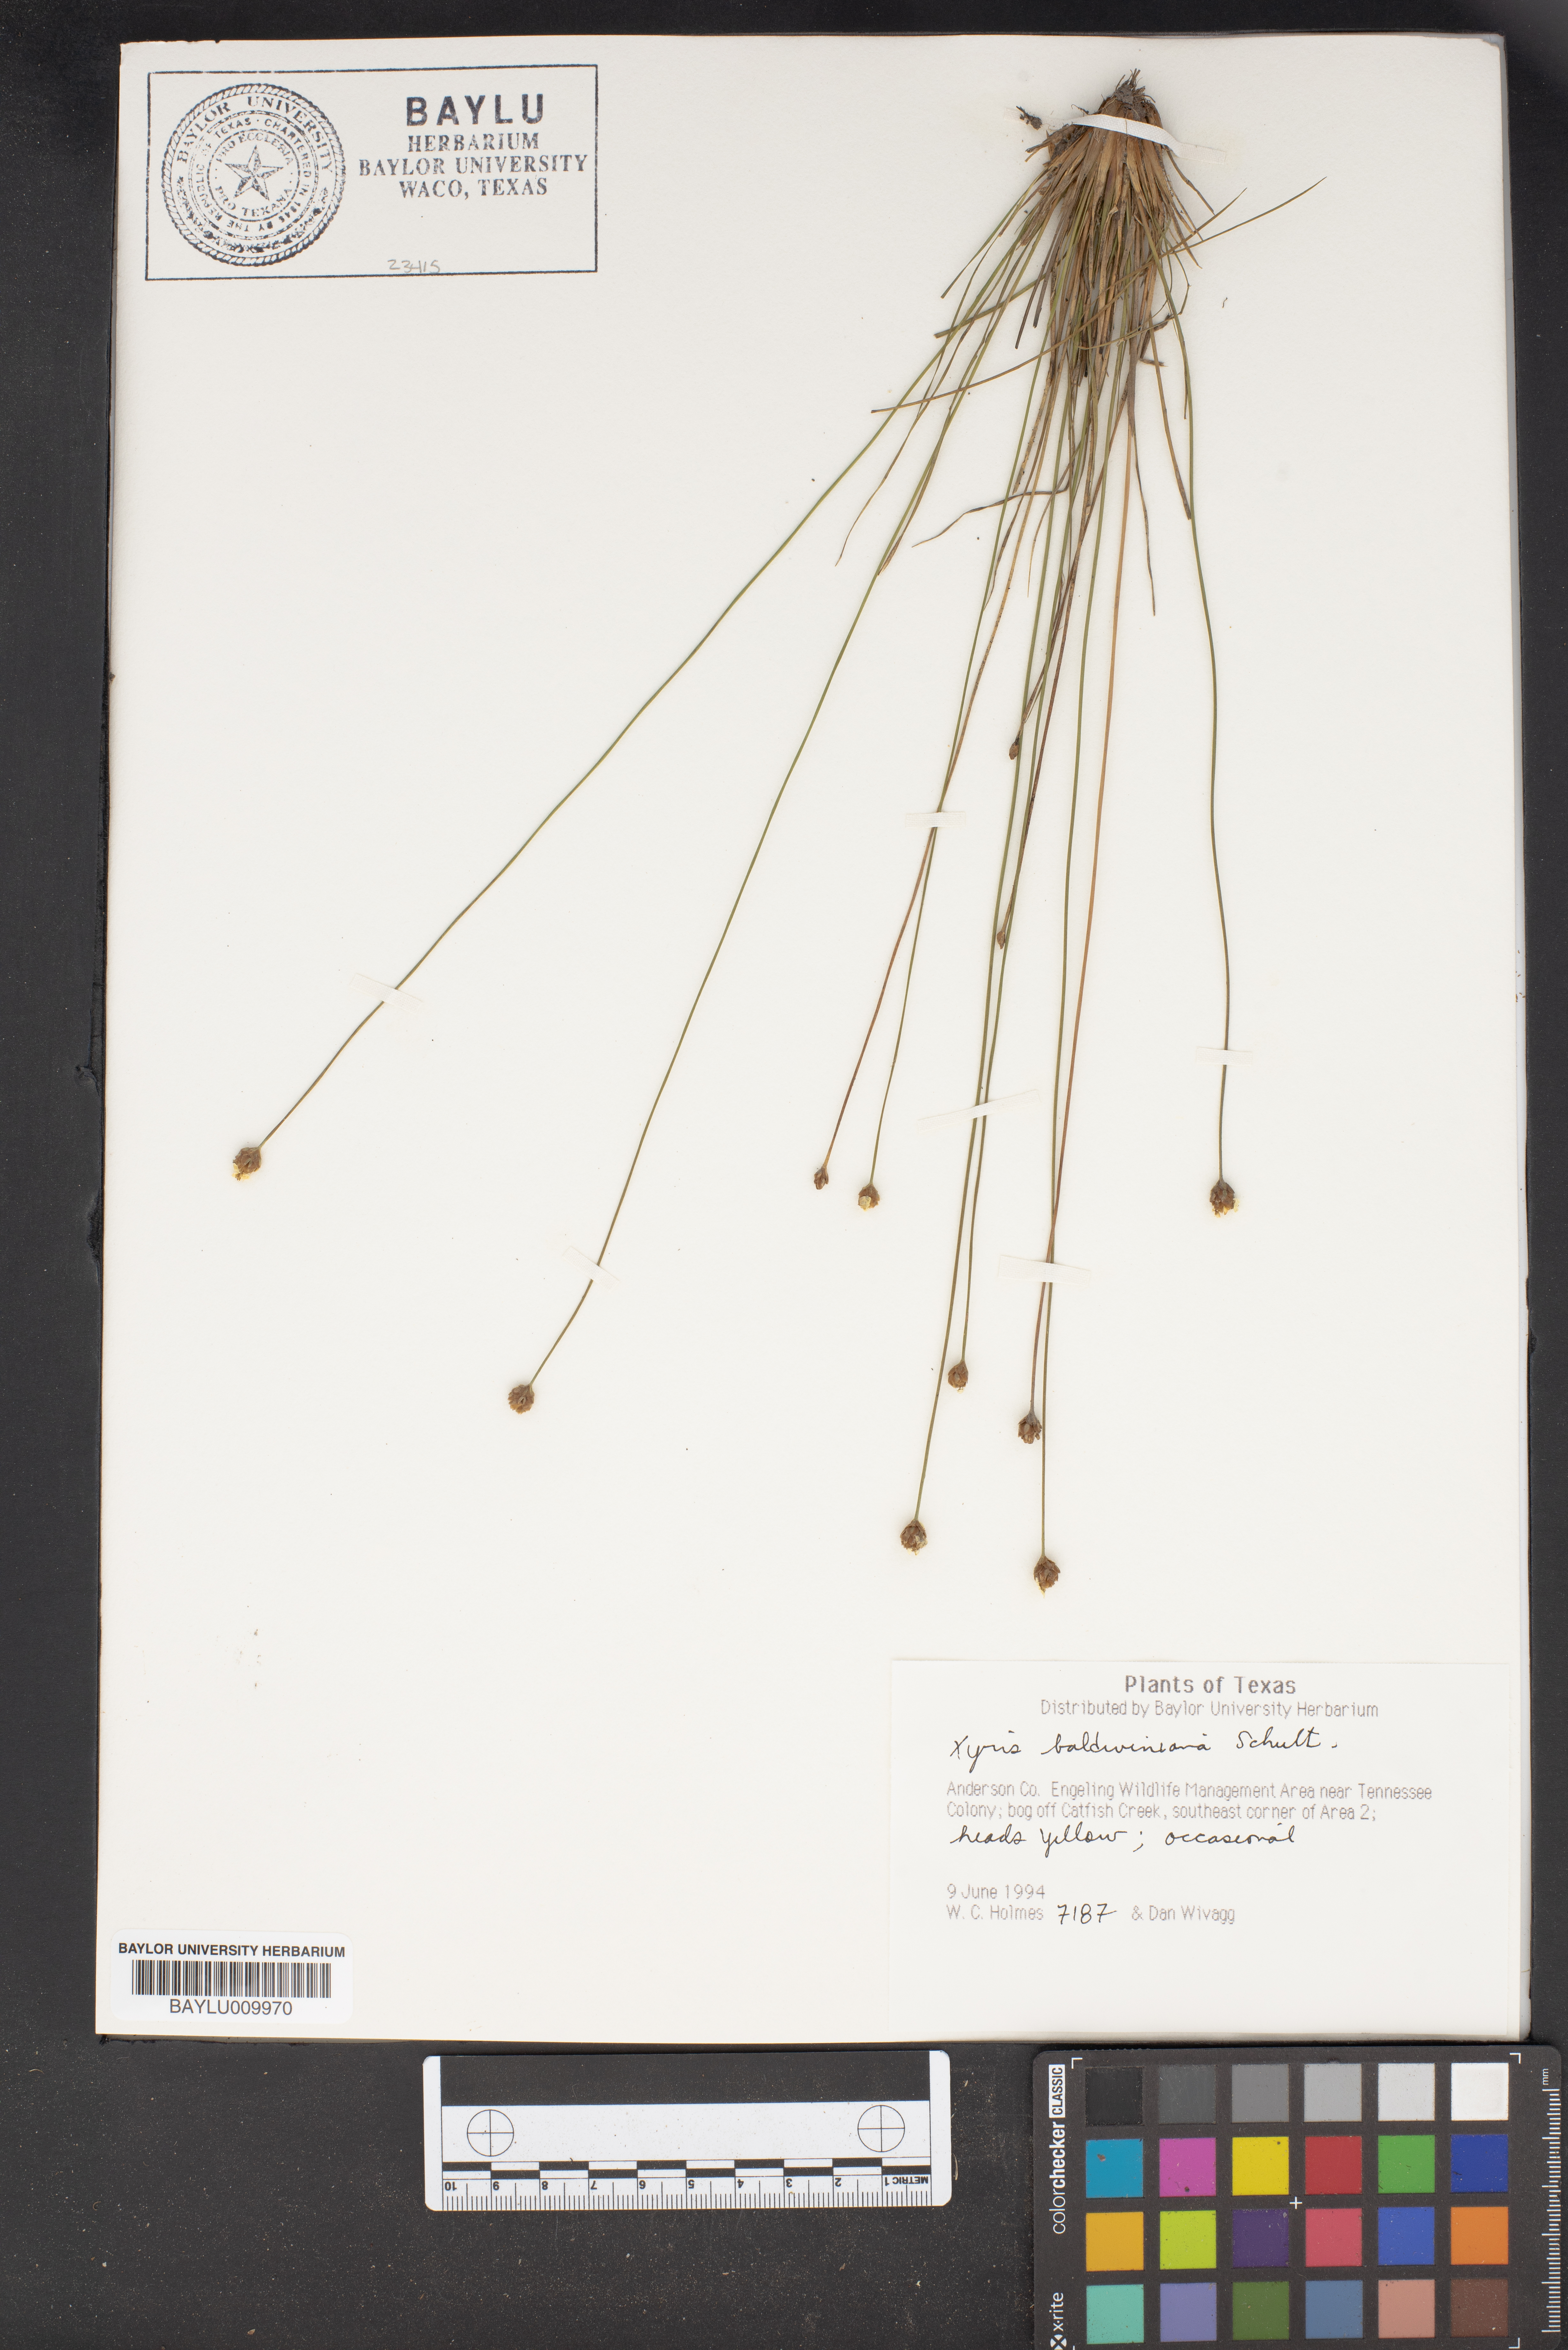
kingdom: Plantae
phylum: Tracheophyta
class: Liliopsida
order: Poales
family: Xyridaceae
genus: Xyris
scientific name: Xyris baldwiniana
